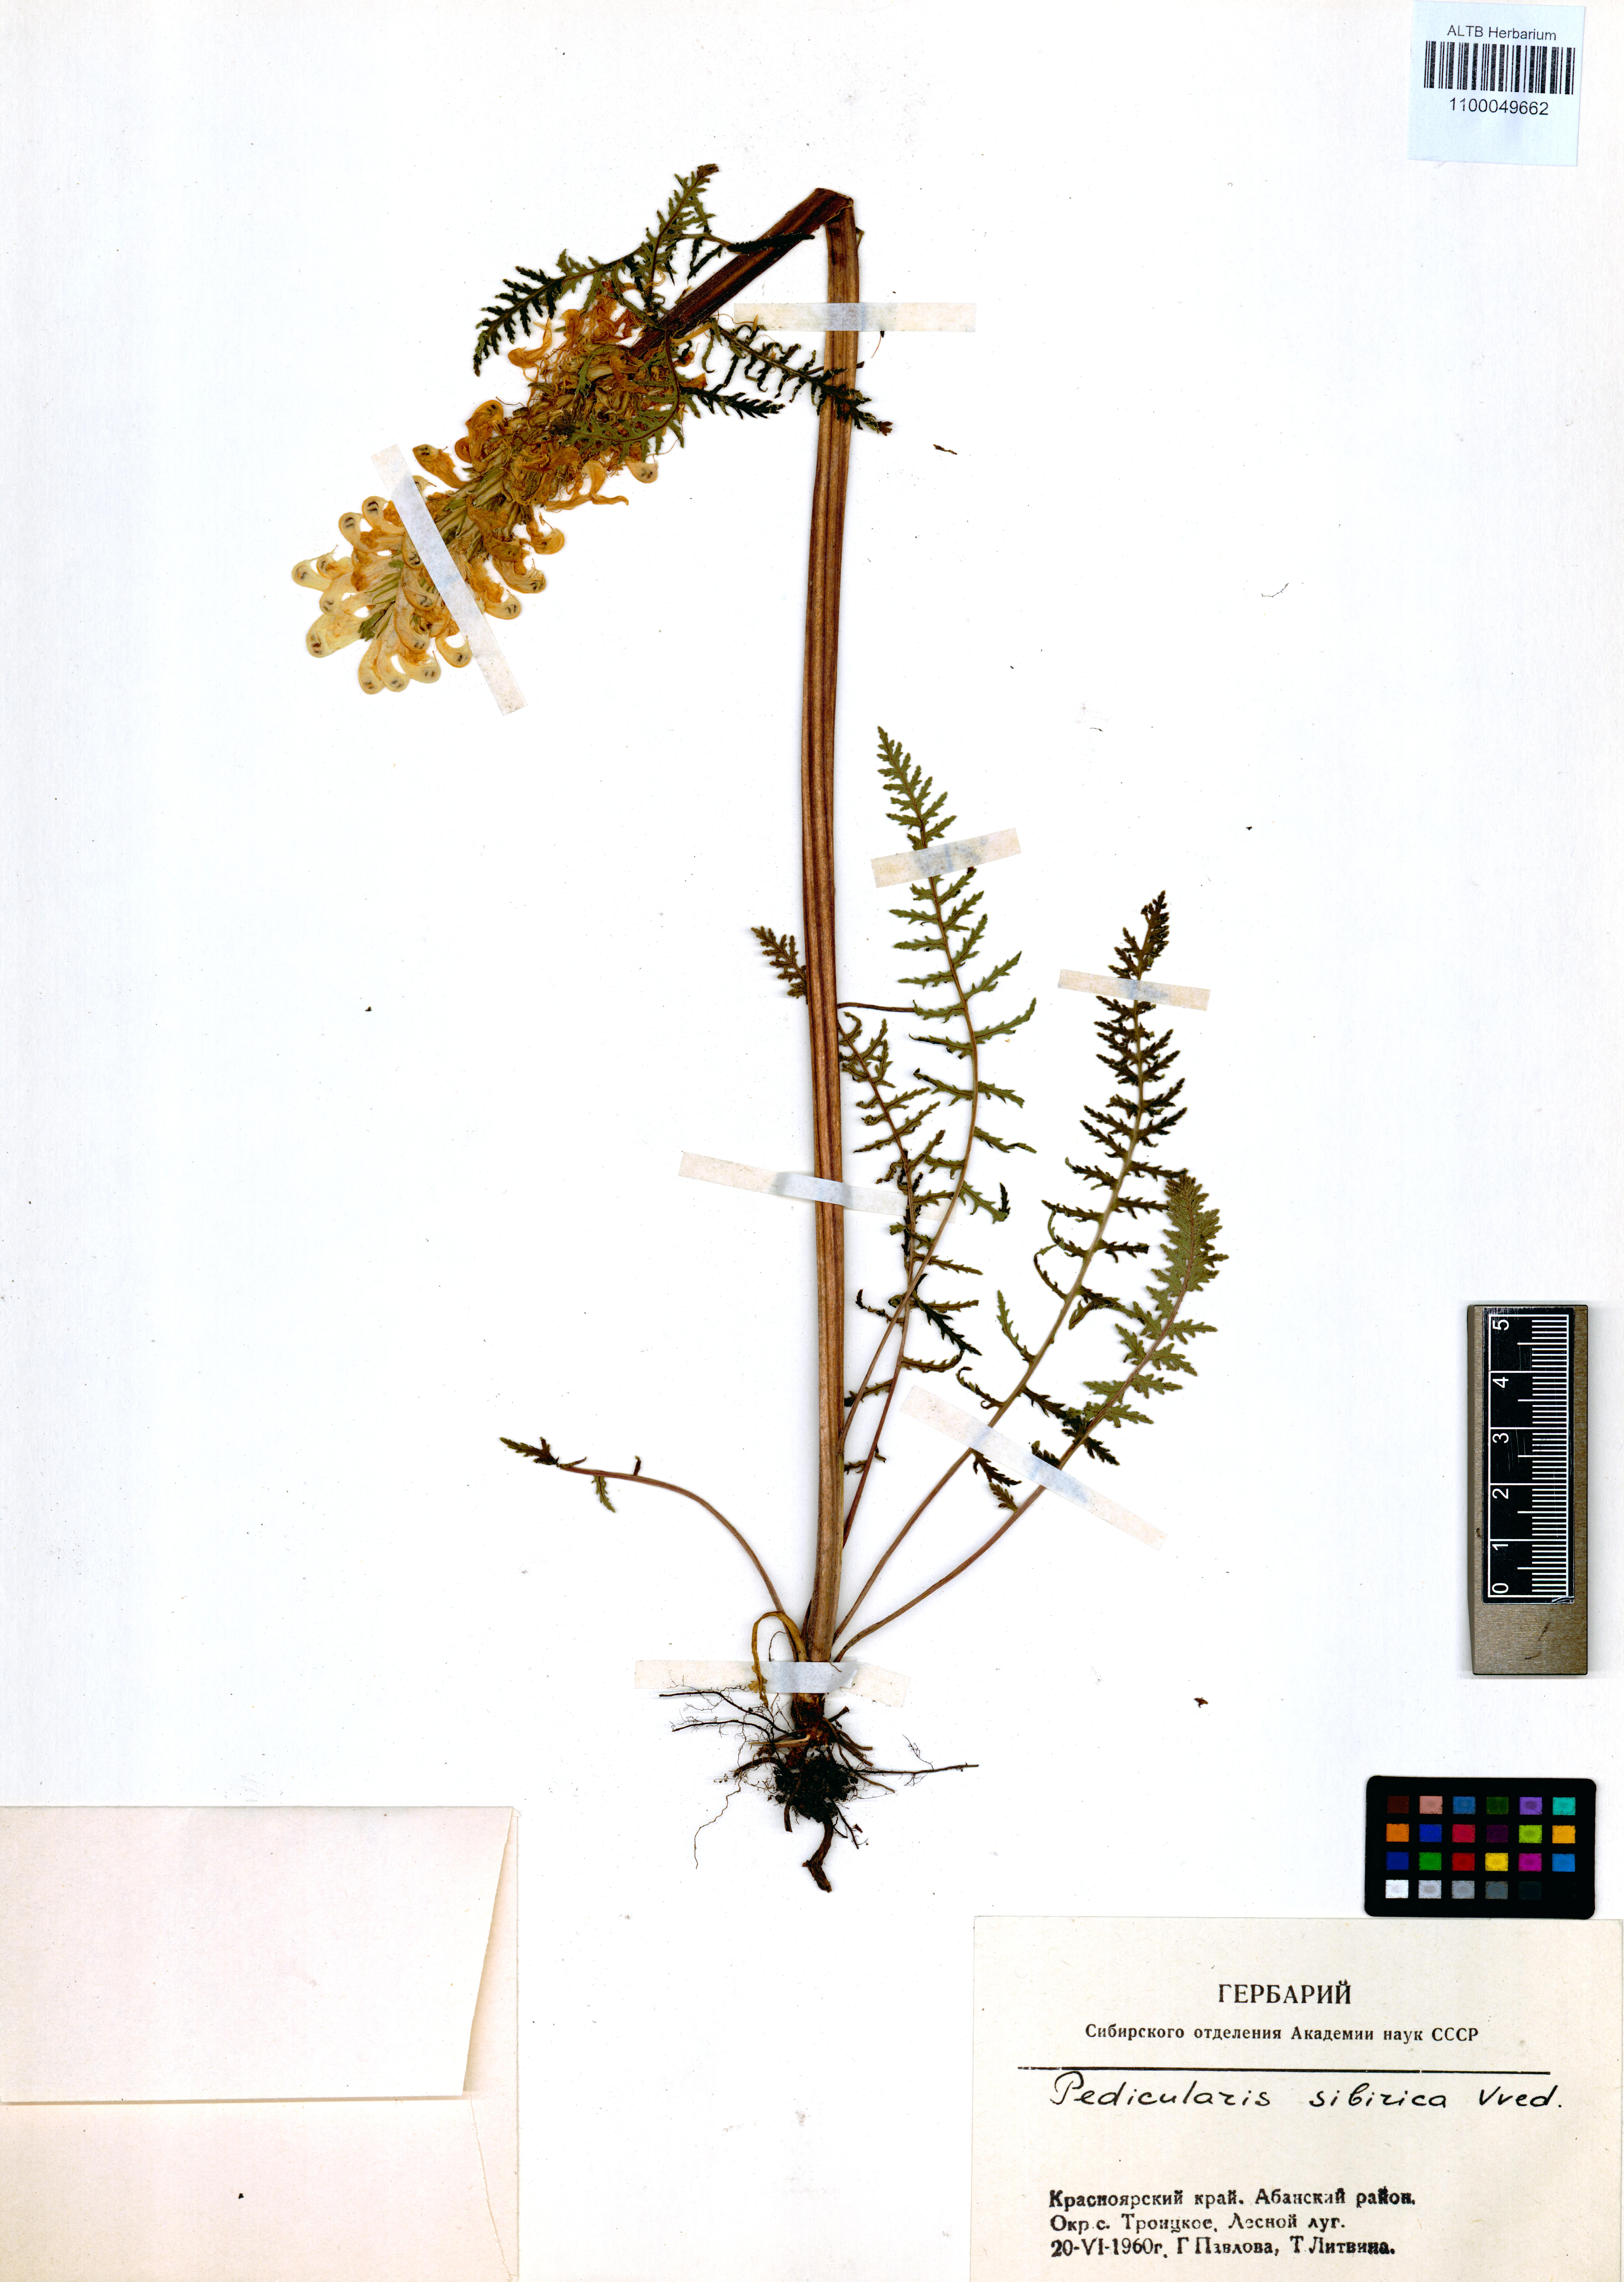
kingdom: Plantae
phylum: Tracheophyta
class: Magnoliopsida
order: Lamiales
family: Orobanchaceae
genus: Pedicularis
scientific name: Pedicularis sibirica
